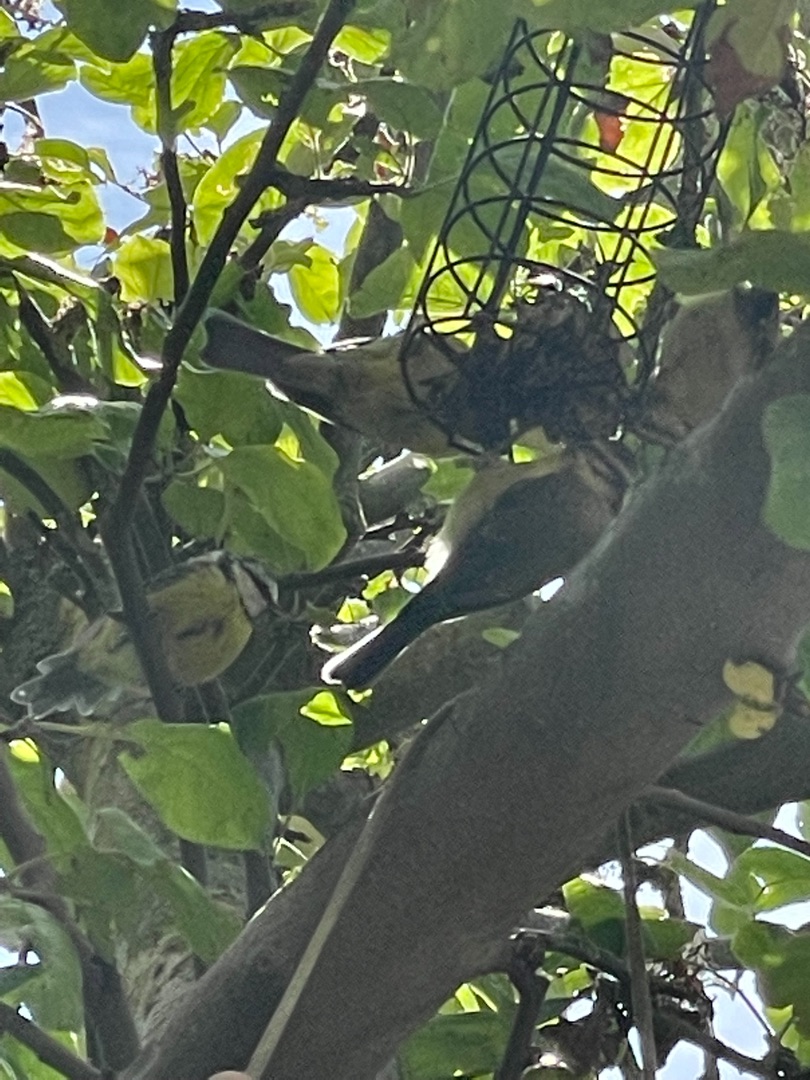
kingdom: Animalia
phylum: Chordata
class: Aves
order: Passeriformes
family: Paridae
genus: Parus
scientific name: Parus major
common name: Musvit
